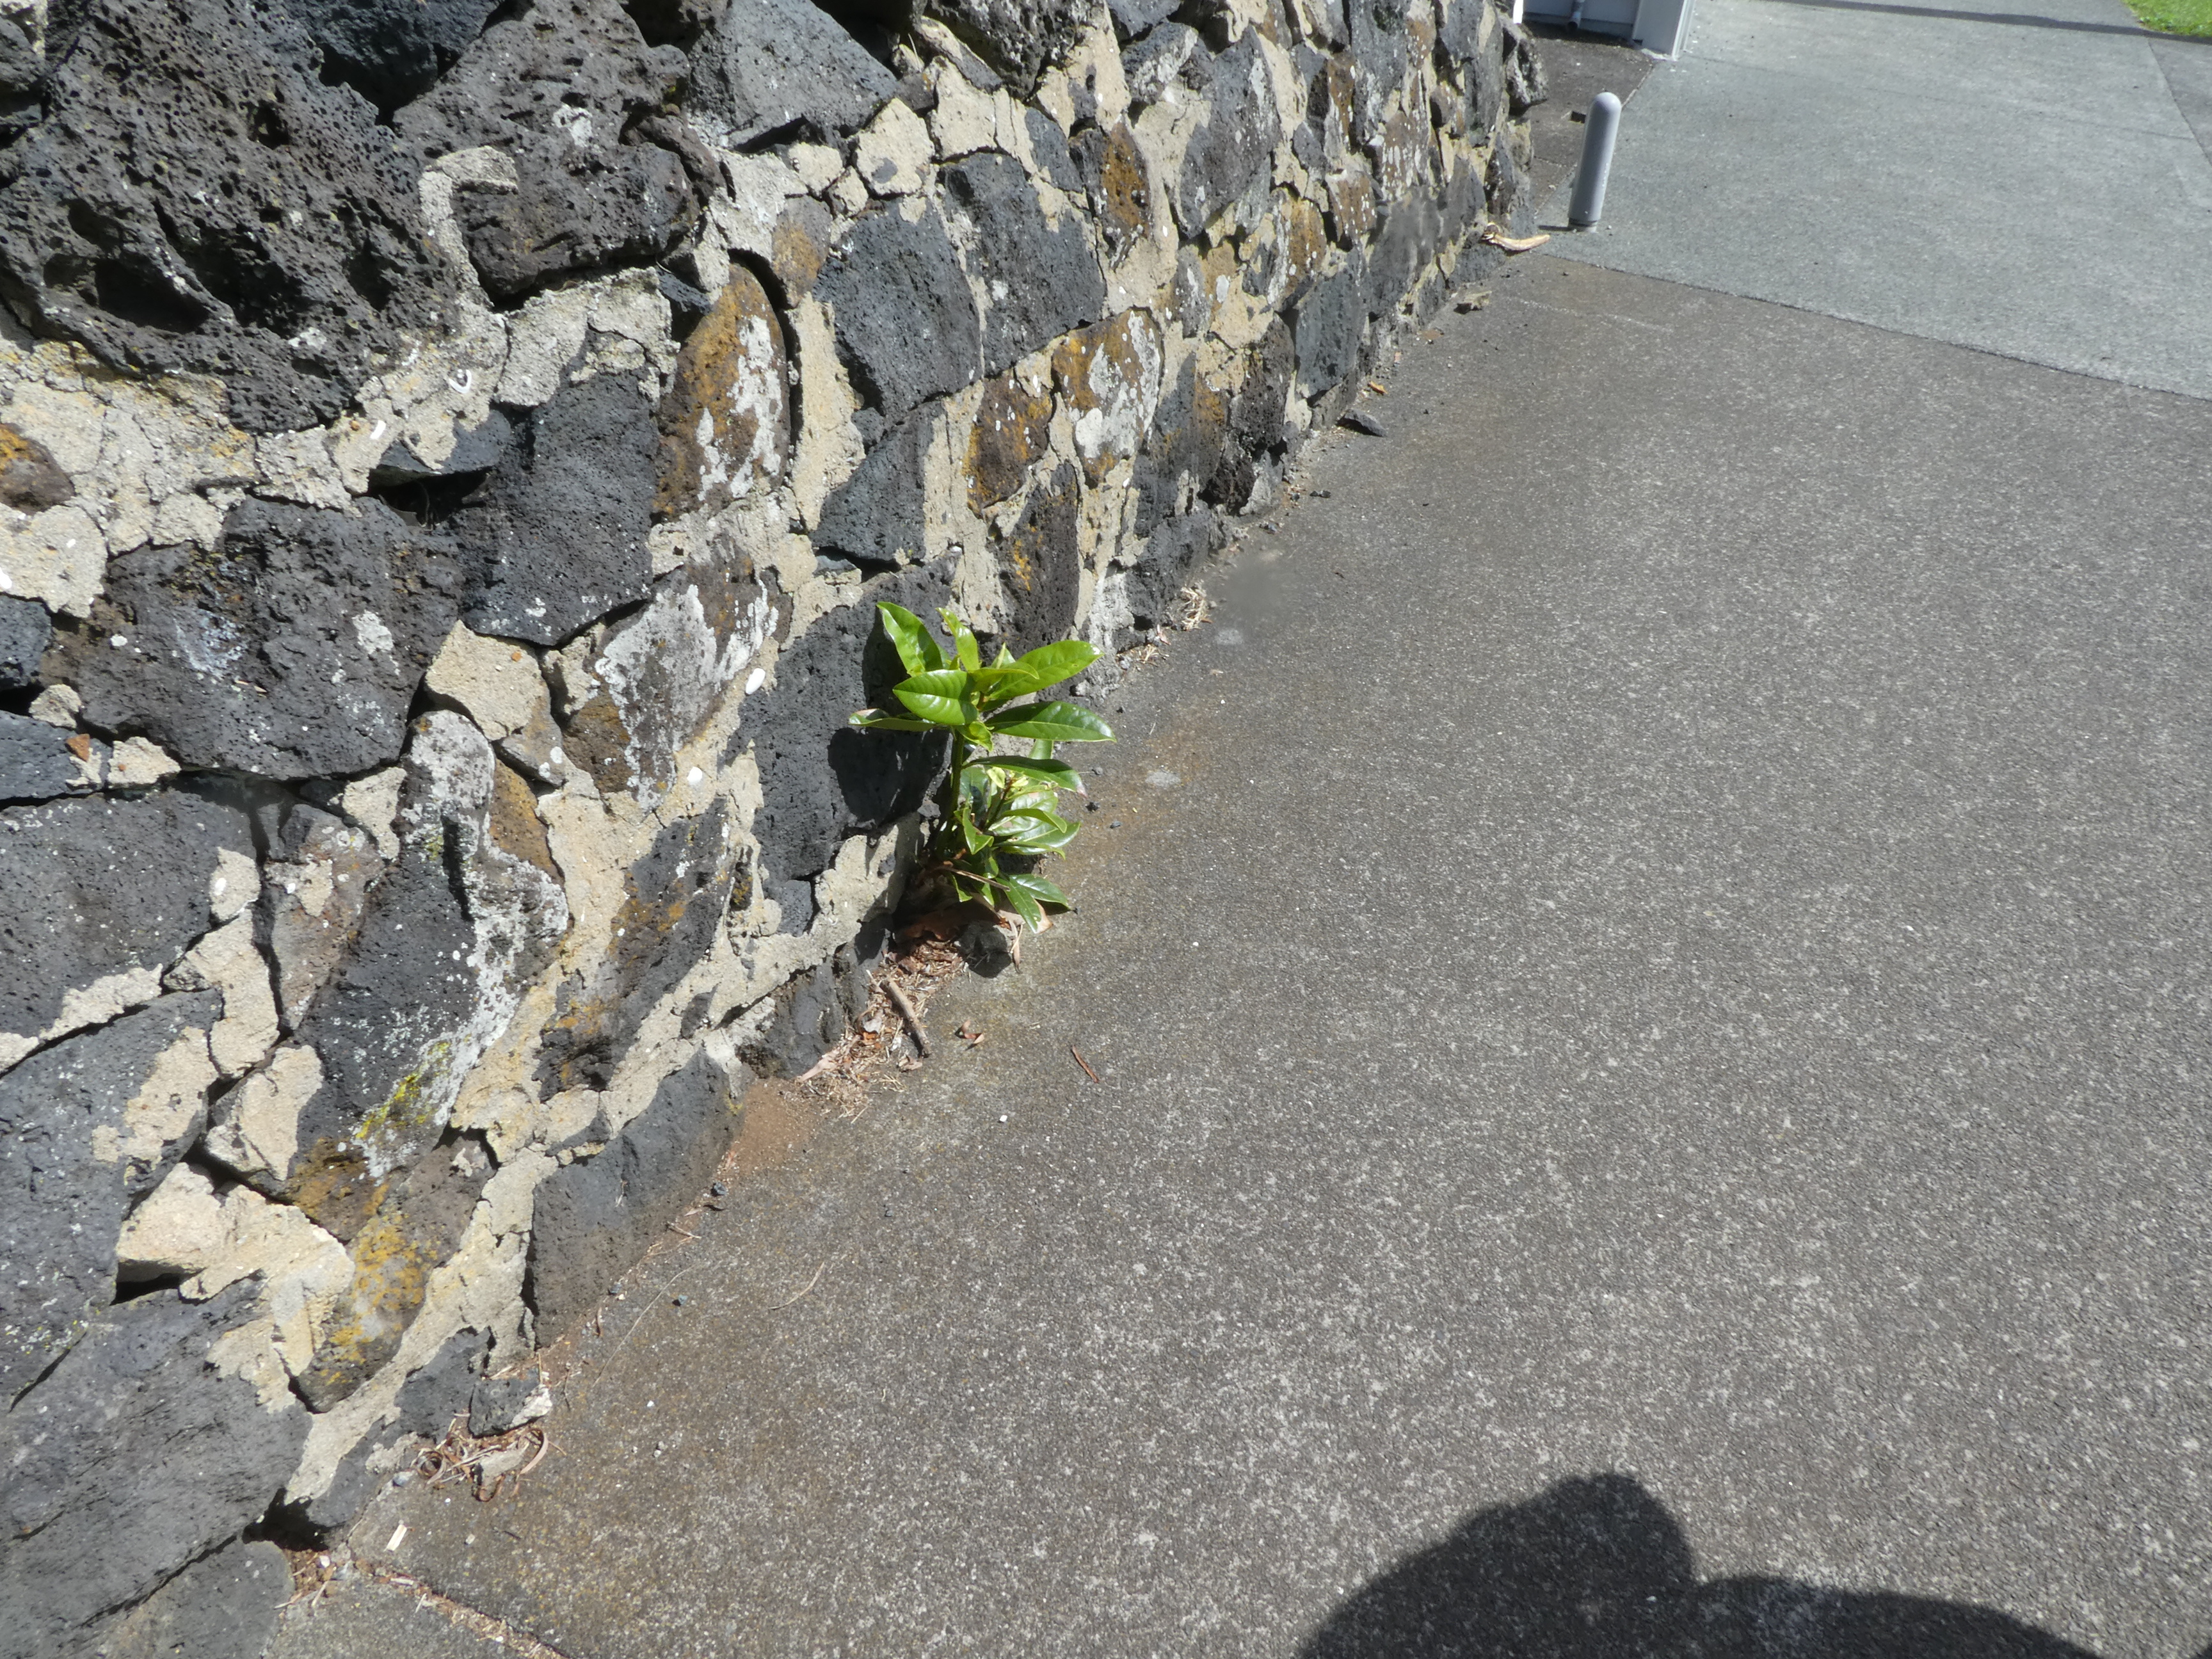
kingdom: Plantae
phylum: Tracheophyta
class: Magnoliopsida
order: Magnoliales
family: Magnoliaceae
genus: Magnolia
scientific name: Magnolia doltsopa
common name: Sweet michelia
